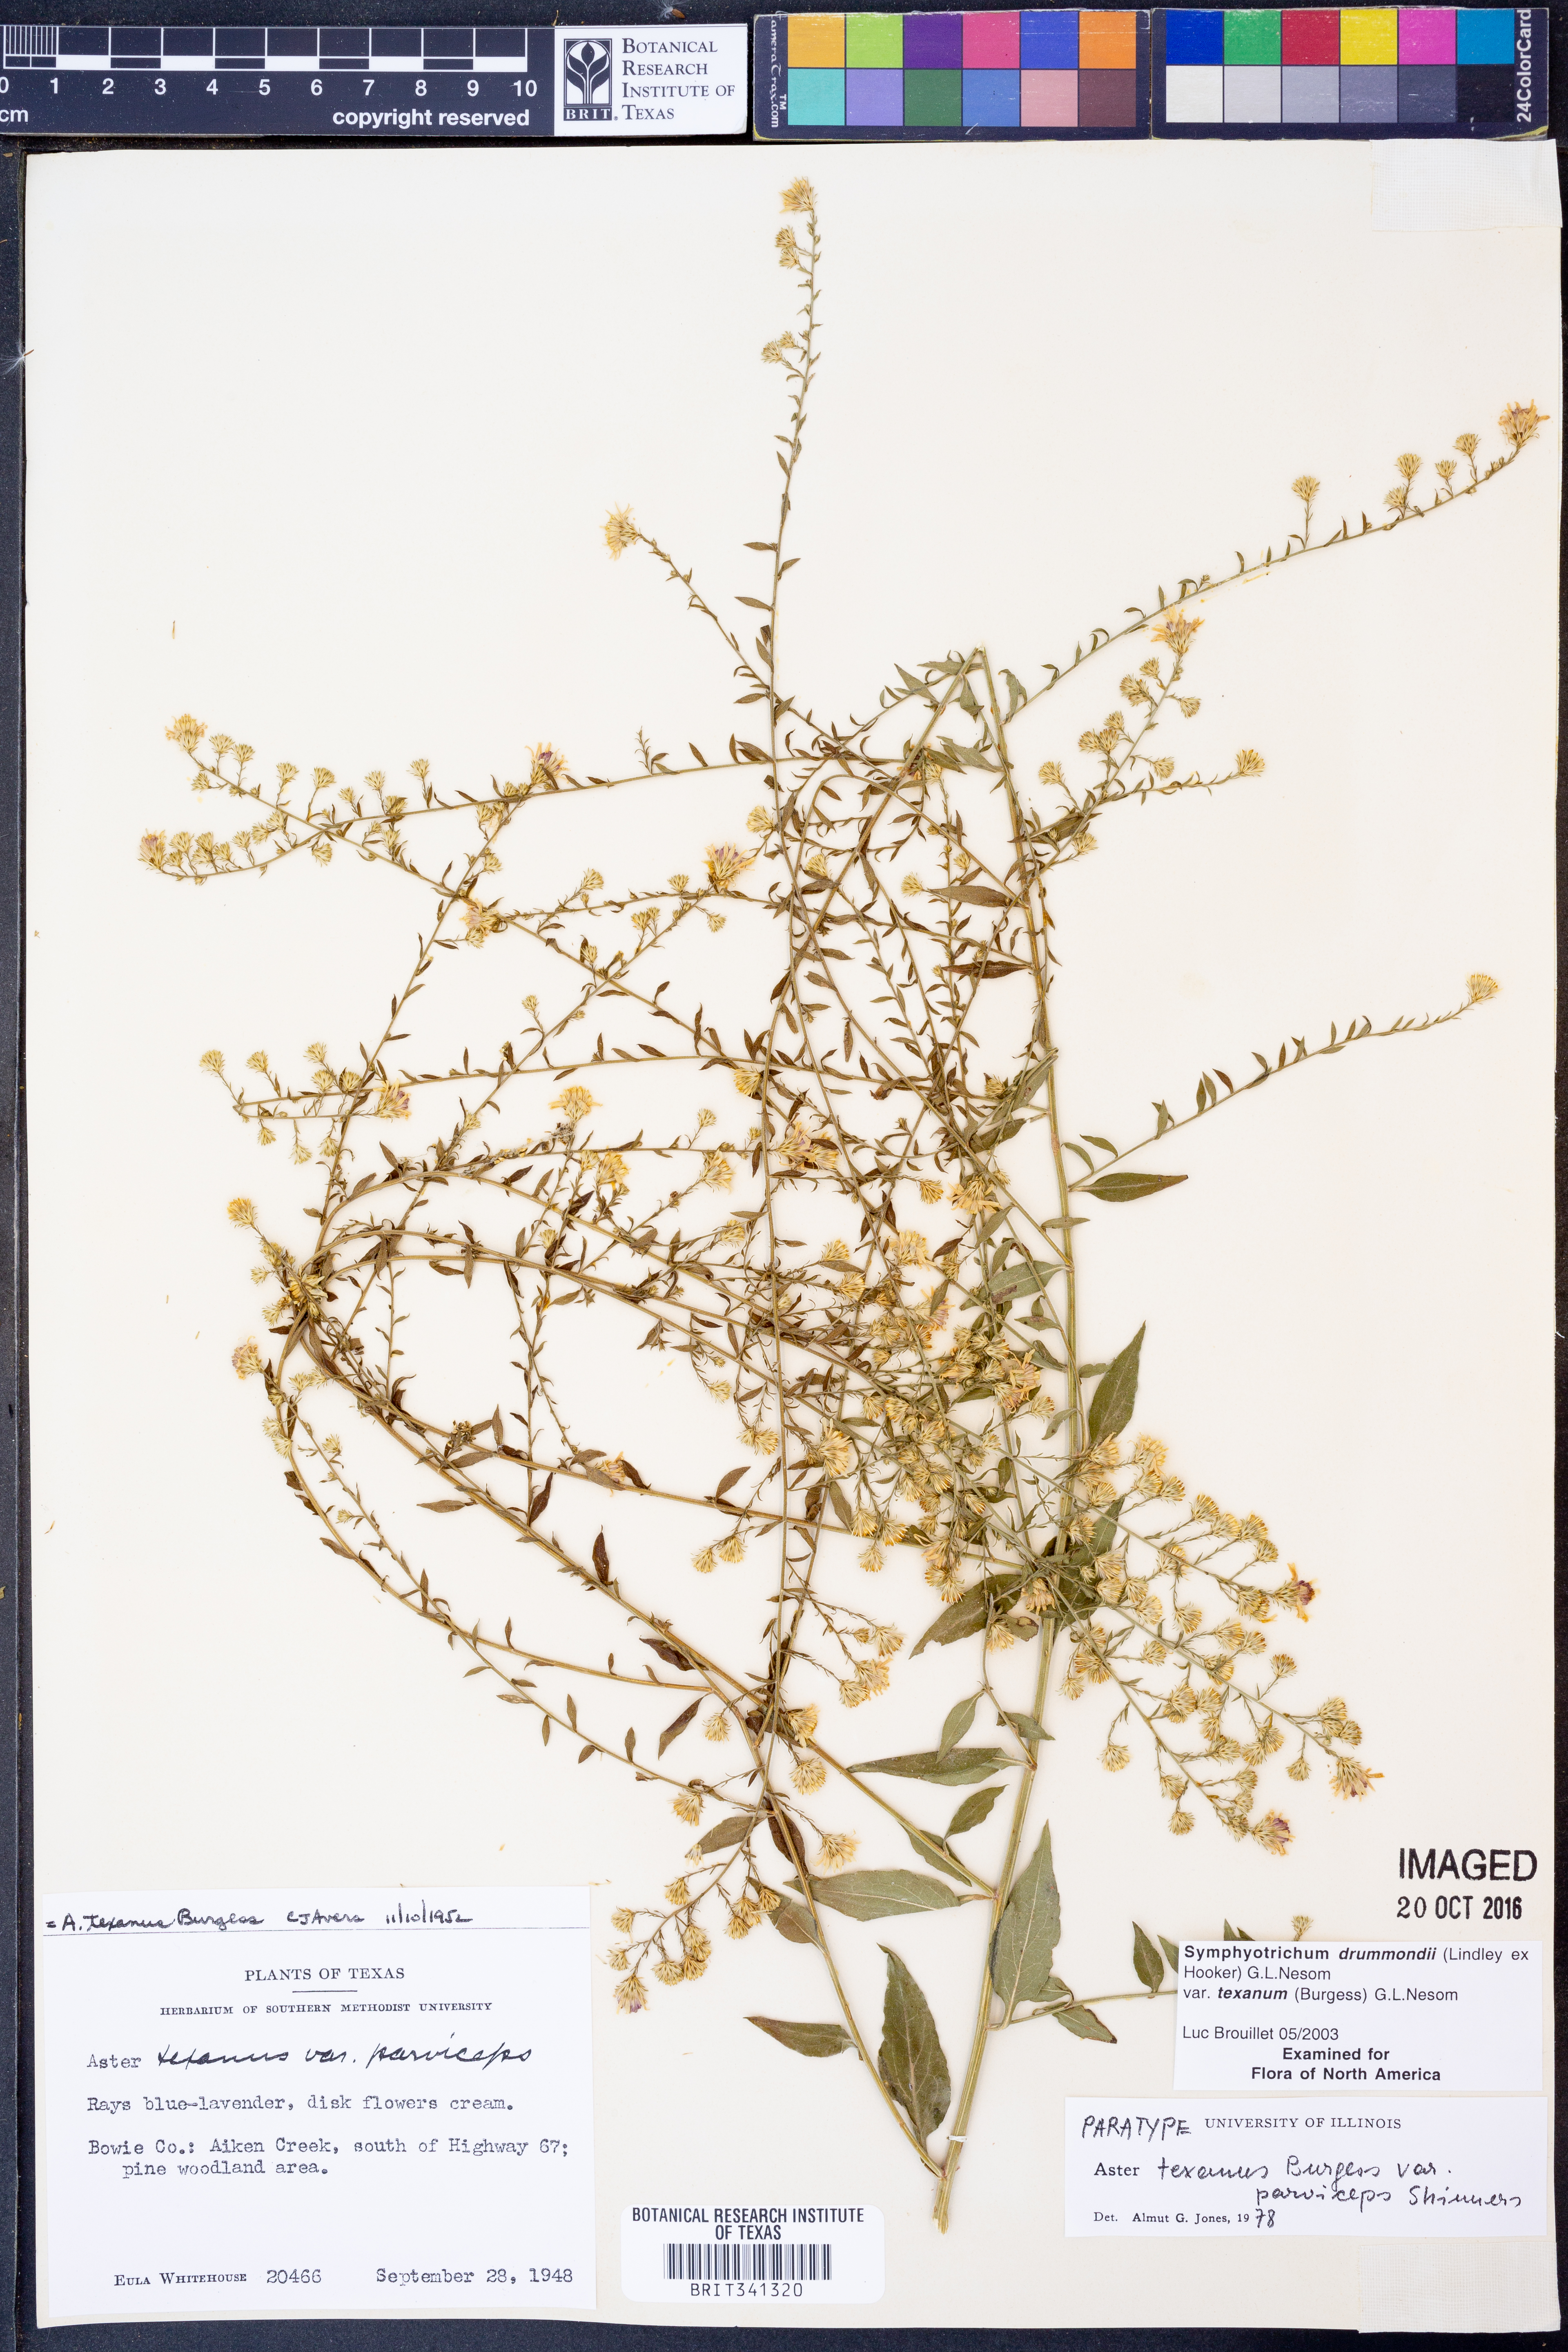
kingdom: Plantae
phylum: Tracheophyta
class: Magnoliopsida
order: Asterales
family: Asteraceae
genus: Symphyotrichum
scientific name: Symphyotrichum drummondii
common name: Drummond's aster
